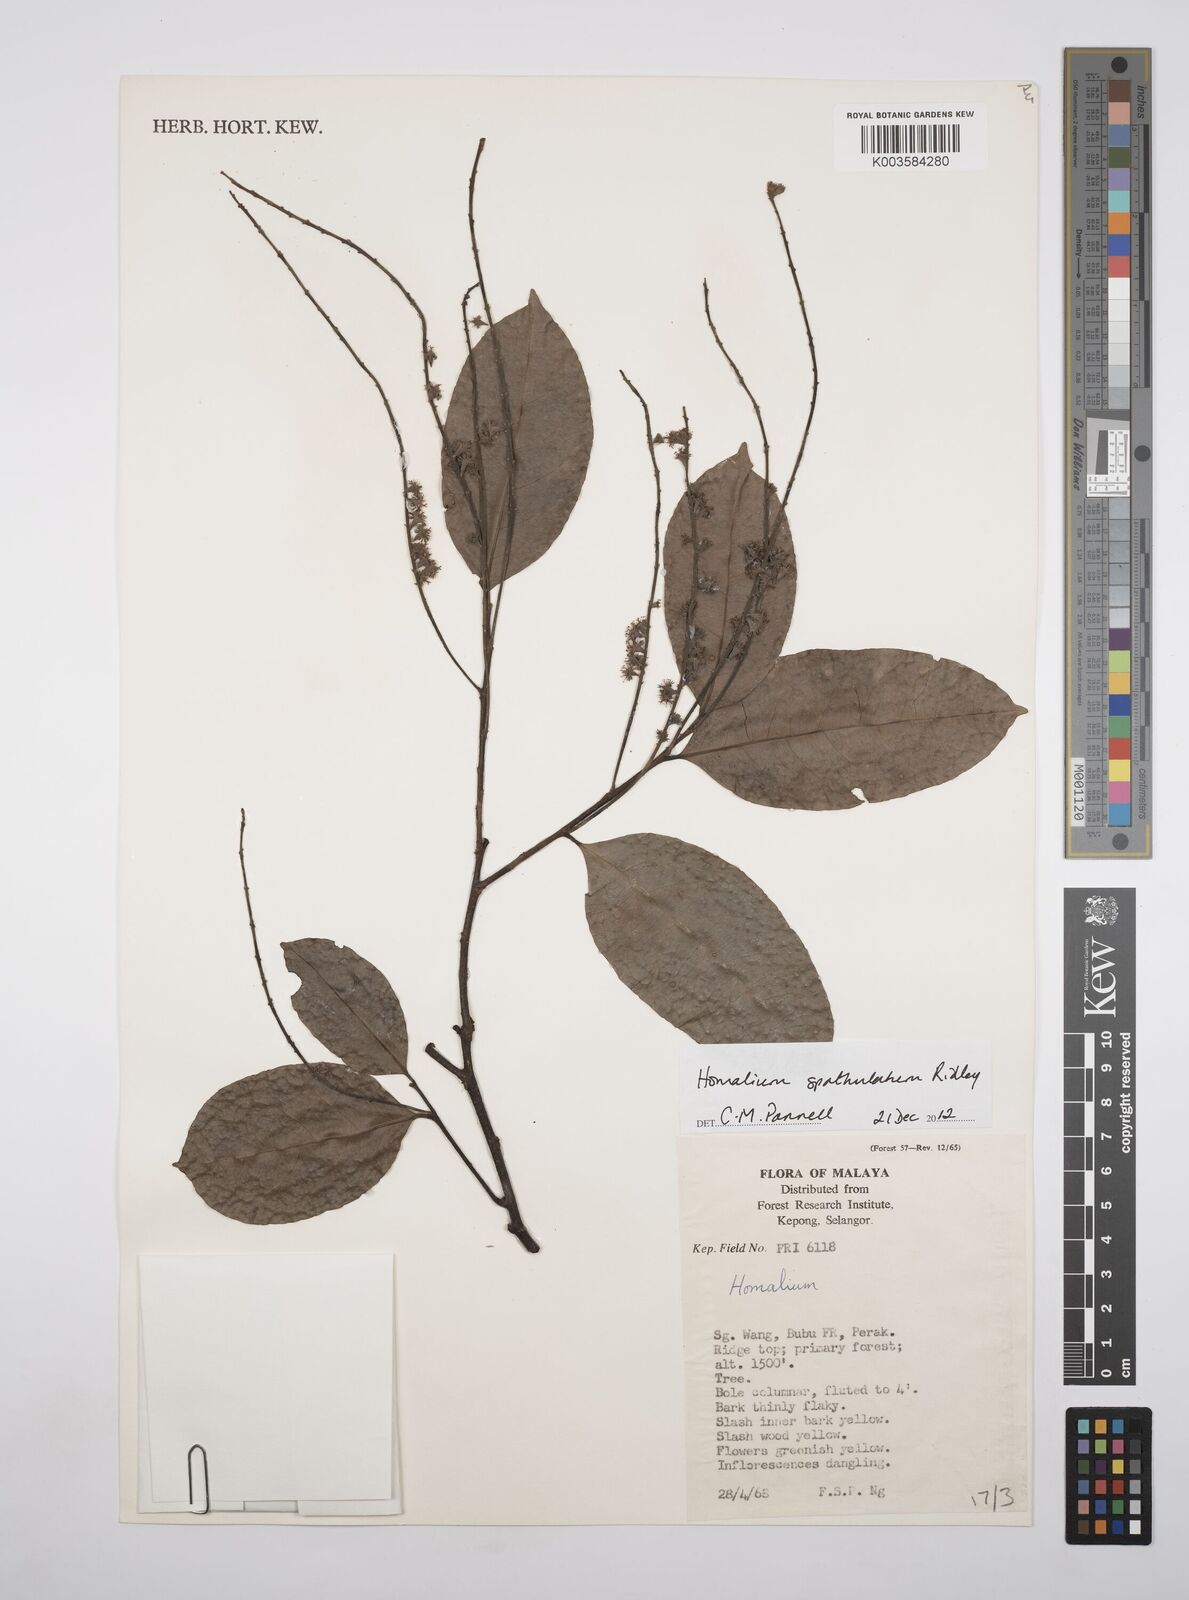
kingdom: Plantae
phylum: Tracheophyta
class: Magnoliopsida
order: Malpighiales
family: Salicaceae
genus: Homalium
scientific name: Homalium spathulatum
